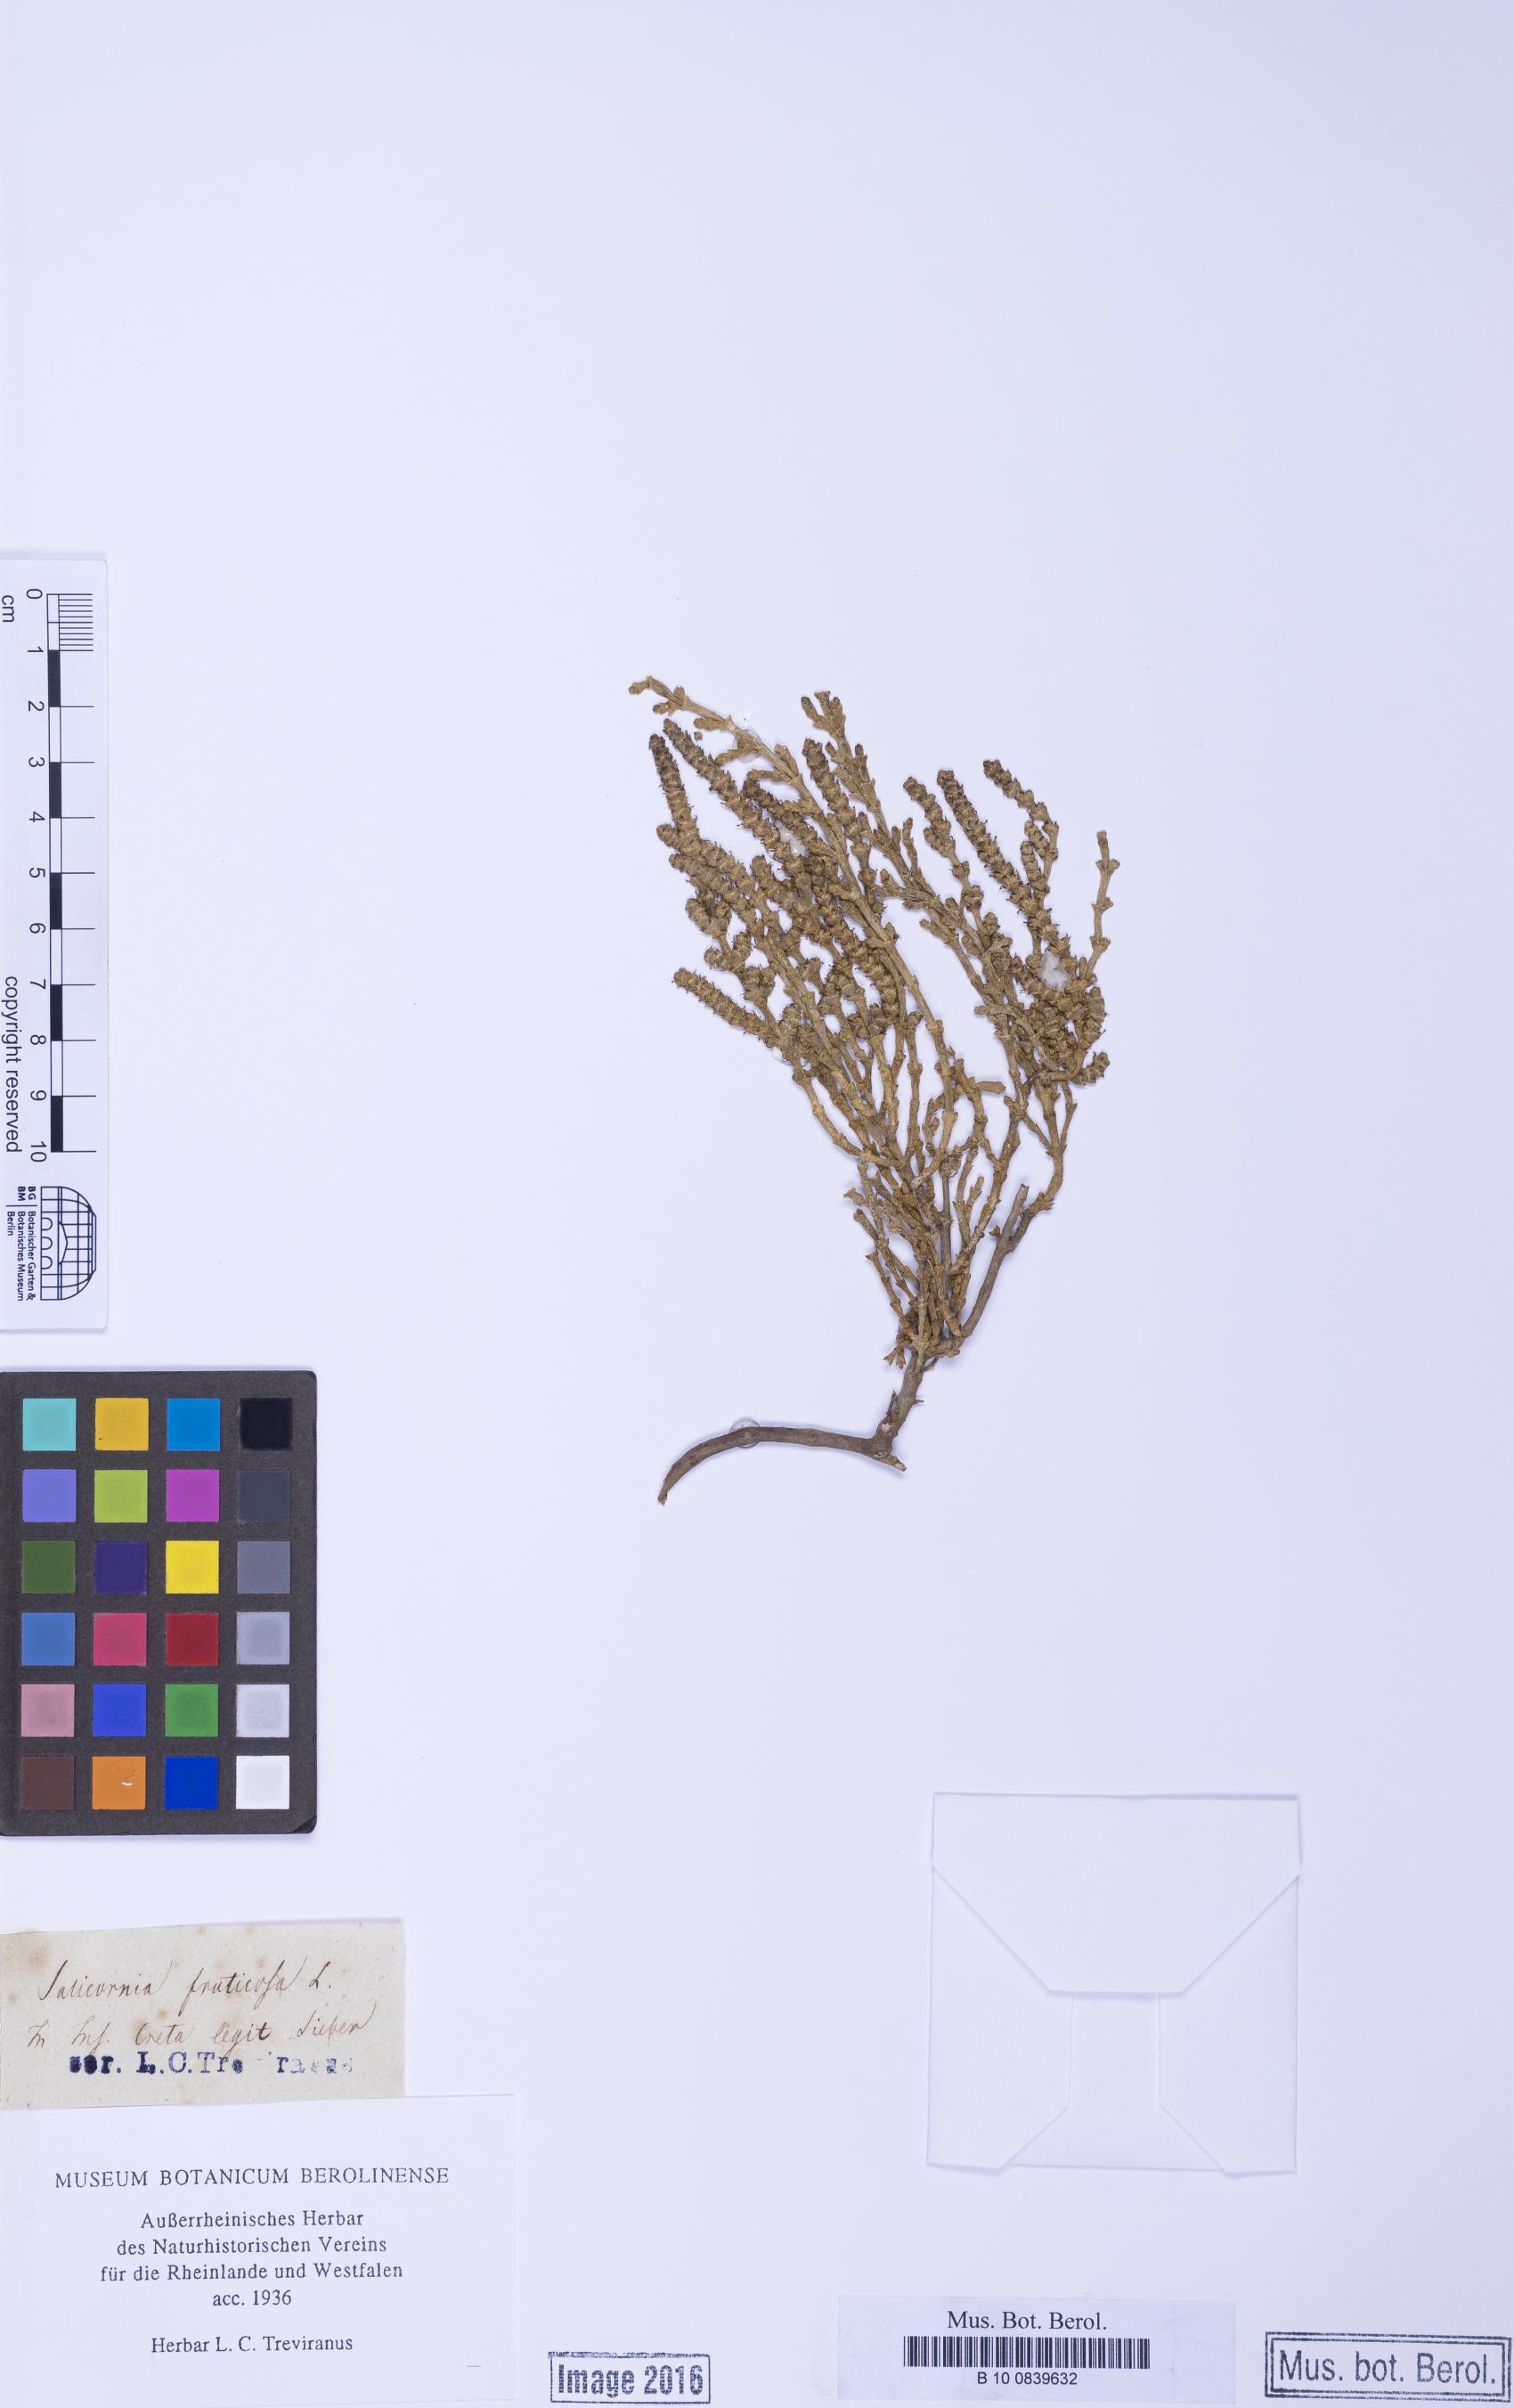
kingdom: Plantae
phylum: Tracheophyta
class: Magnoliopsida
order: Caryophyllales
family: Amaranthaceae
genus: Arthrocaulon
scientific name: Arthrocaulon macrostachyum
